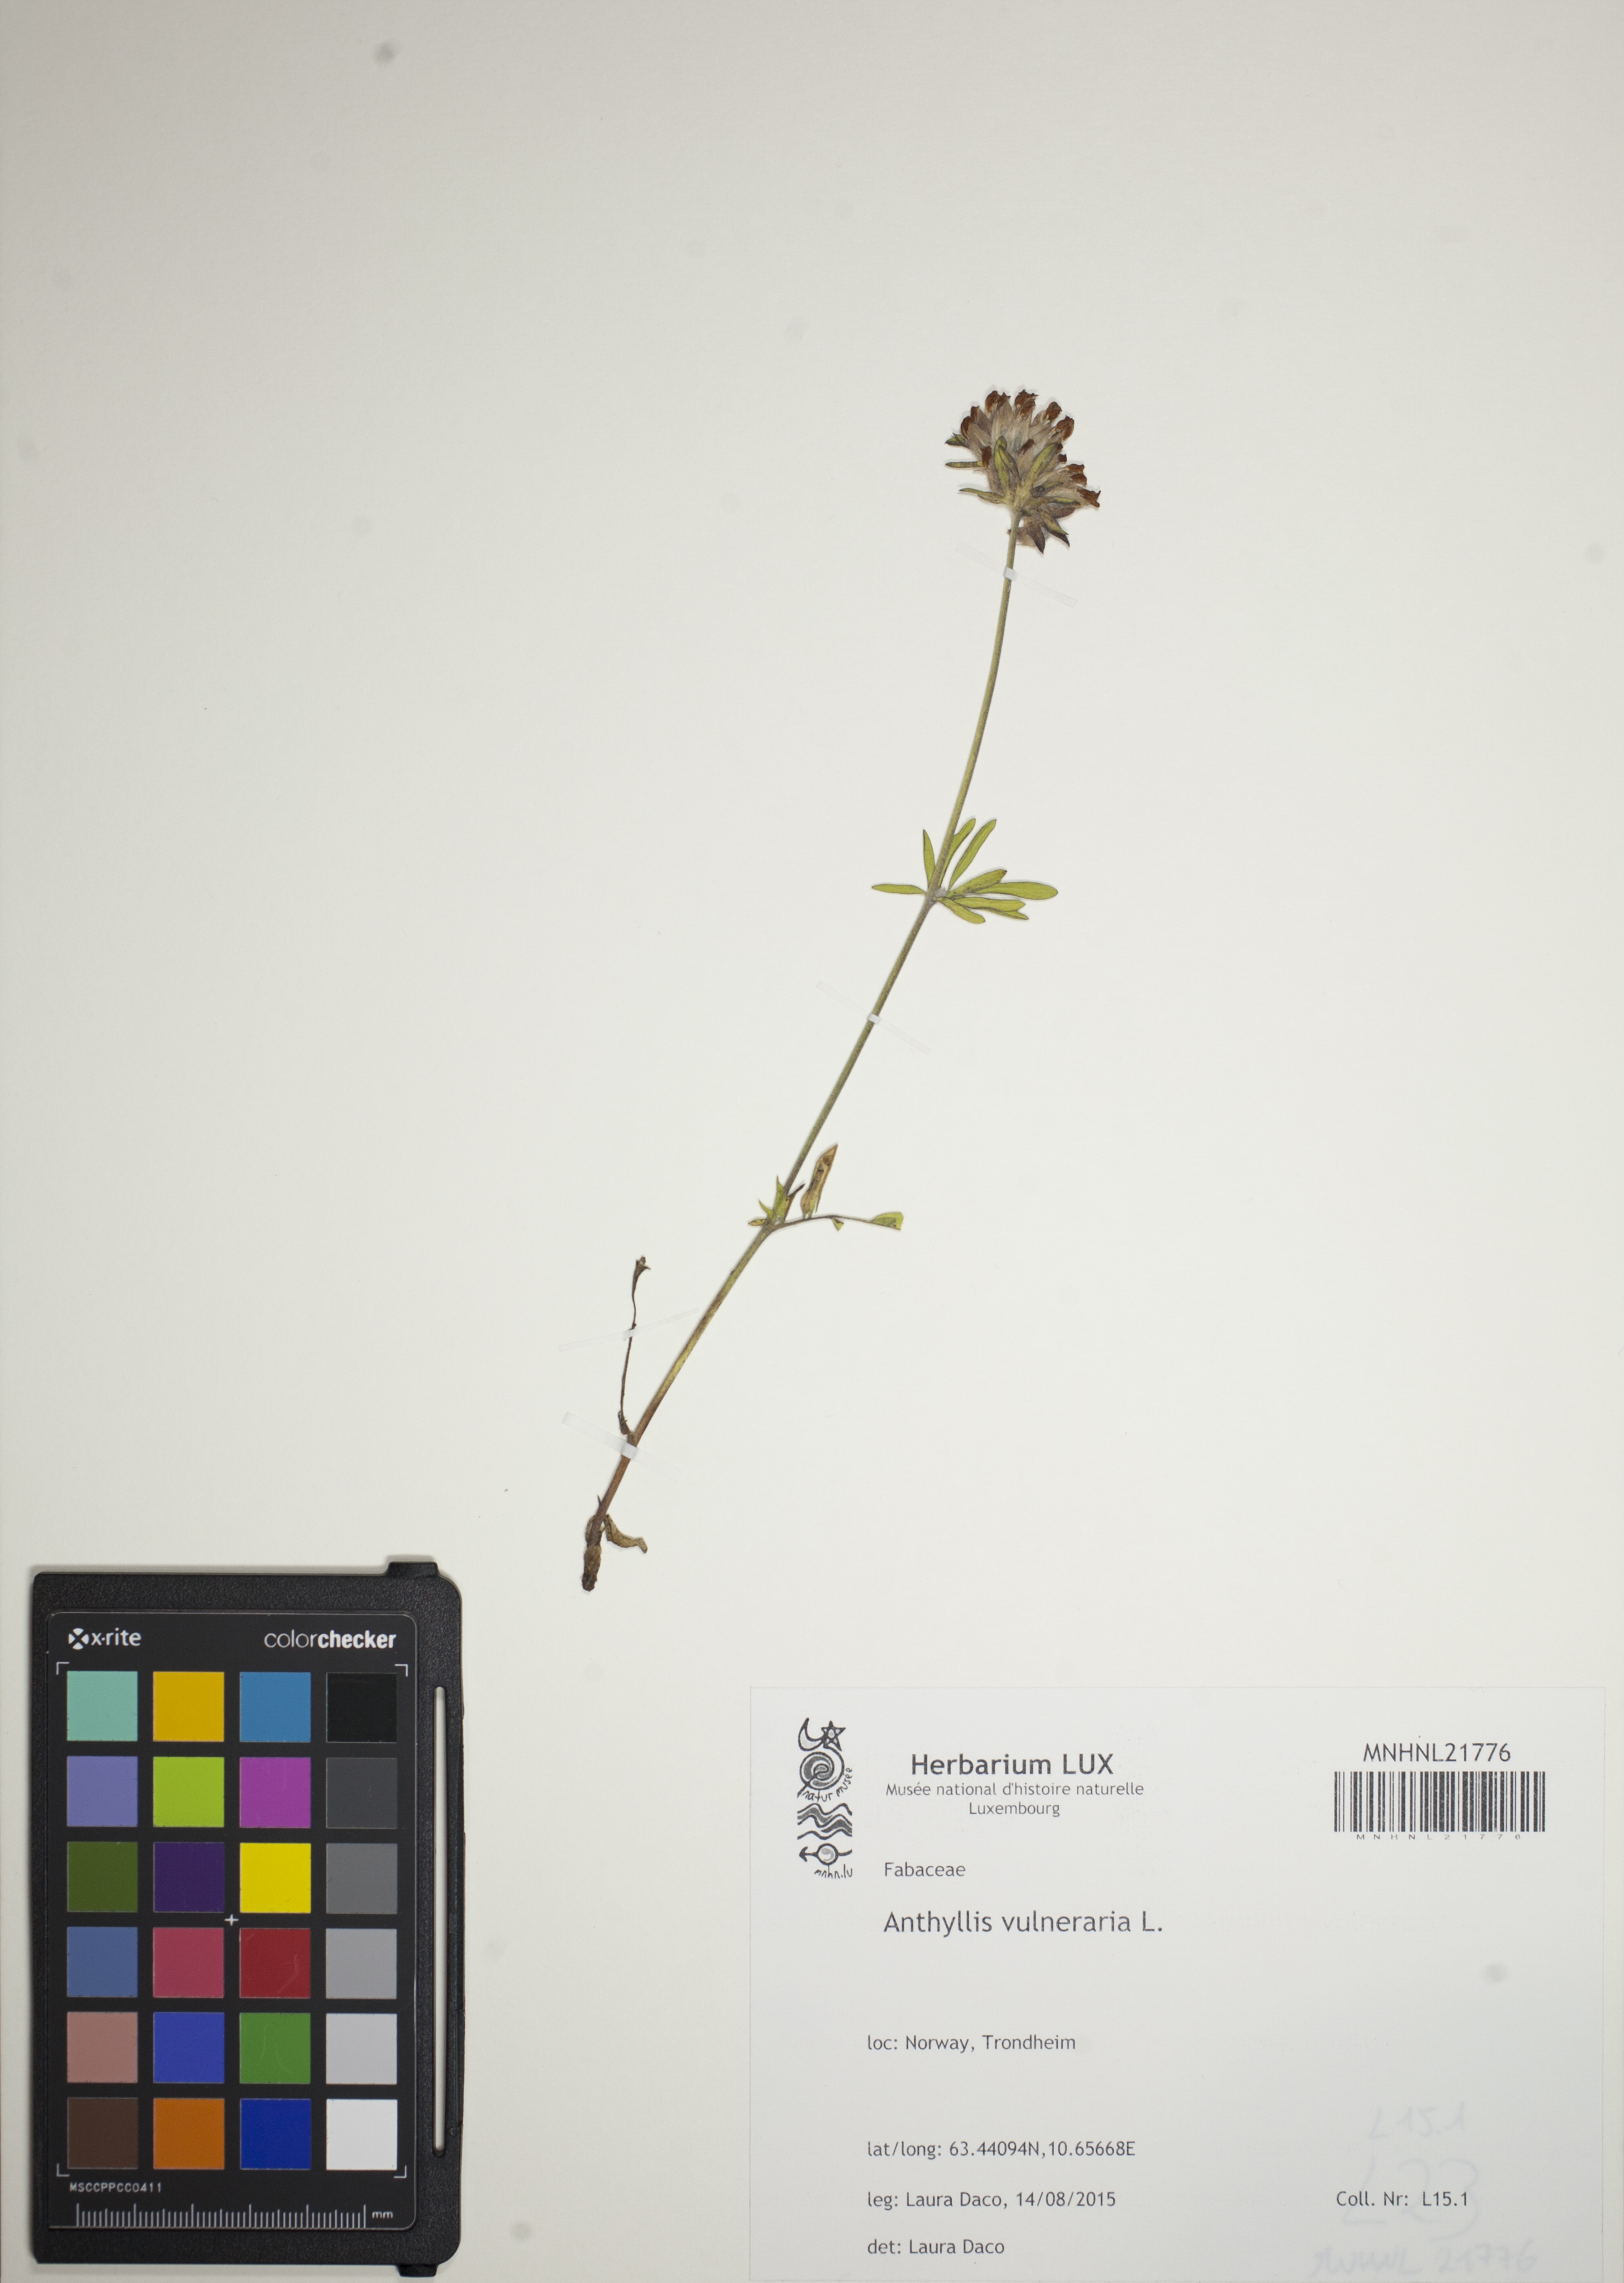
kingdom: Plantae
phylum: Tracheophyta
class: Magnoliopsida
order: Fabales
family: Fabaceae
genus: Anthyllis
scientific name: Anthyllis vulneraria
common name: Kidney vetch
